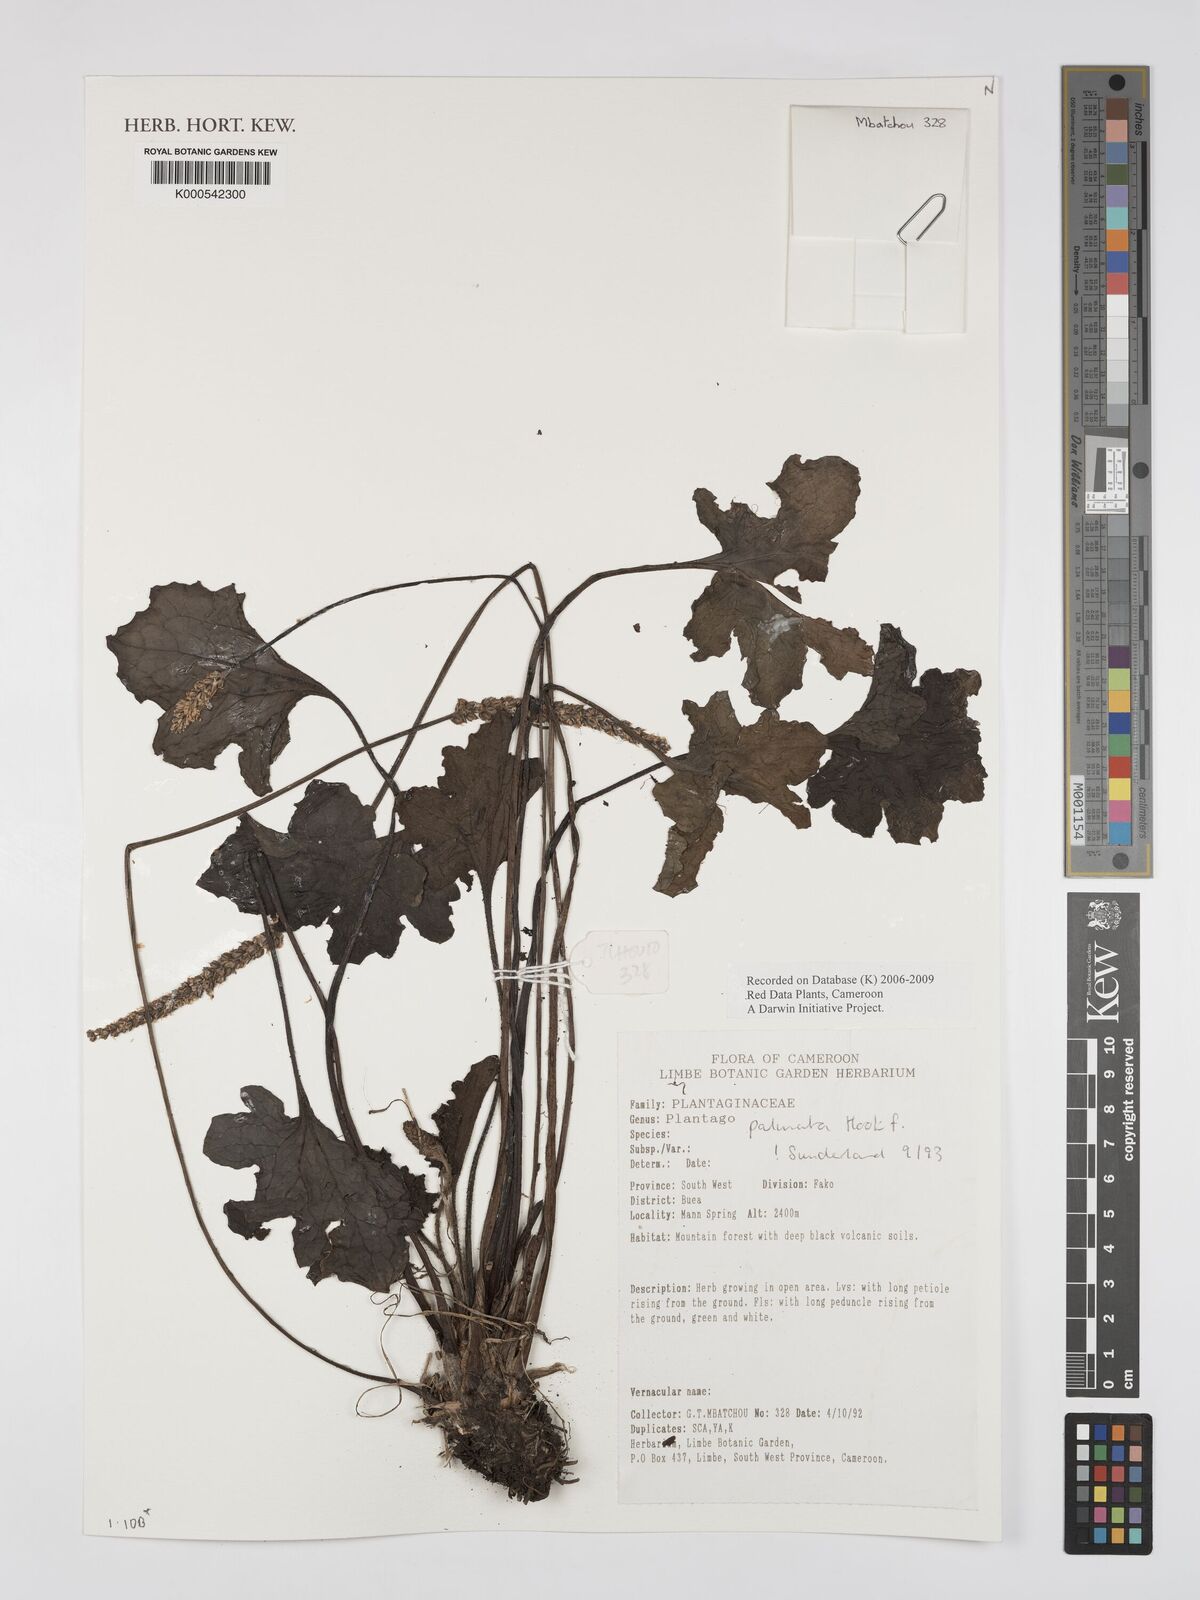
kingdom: Plantae
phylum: Tracheophyta
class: Magnoliopsida
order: Lamiales
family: Plantaginaceae
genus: Plantago
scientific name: Plantago palmata
